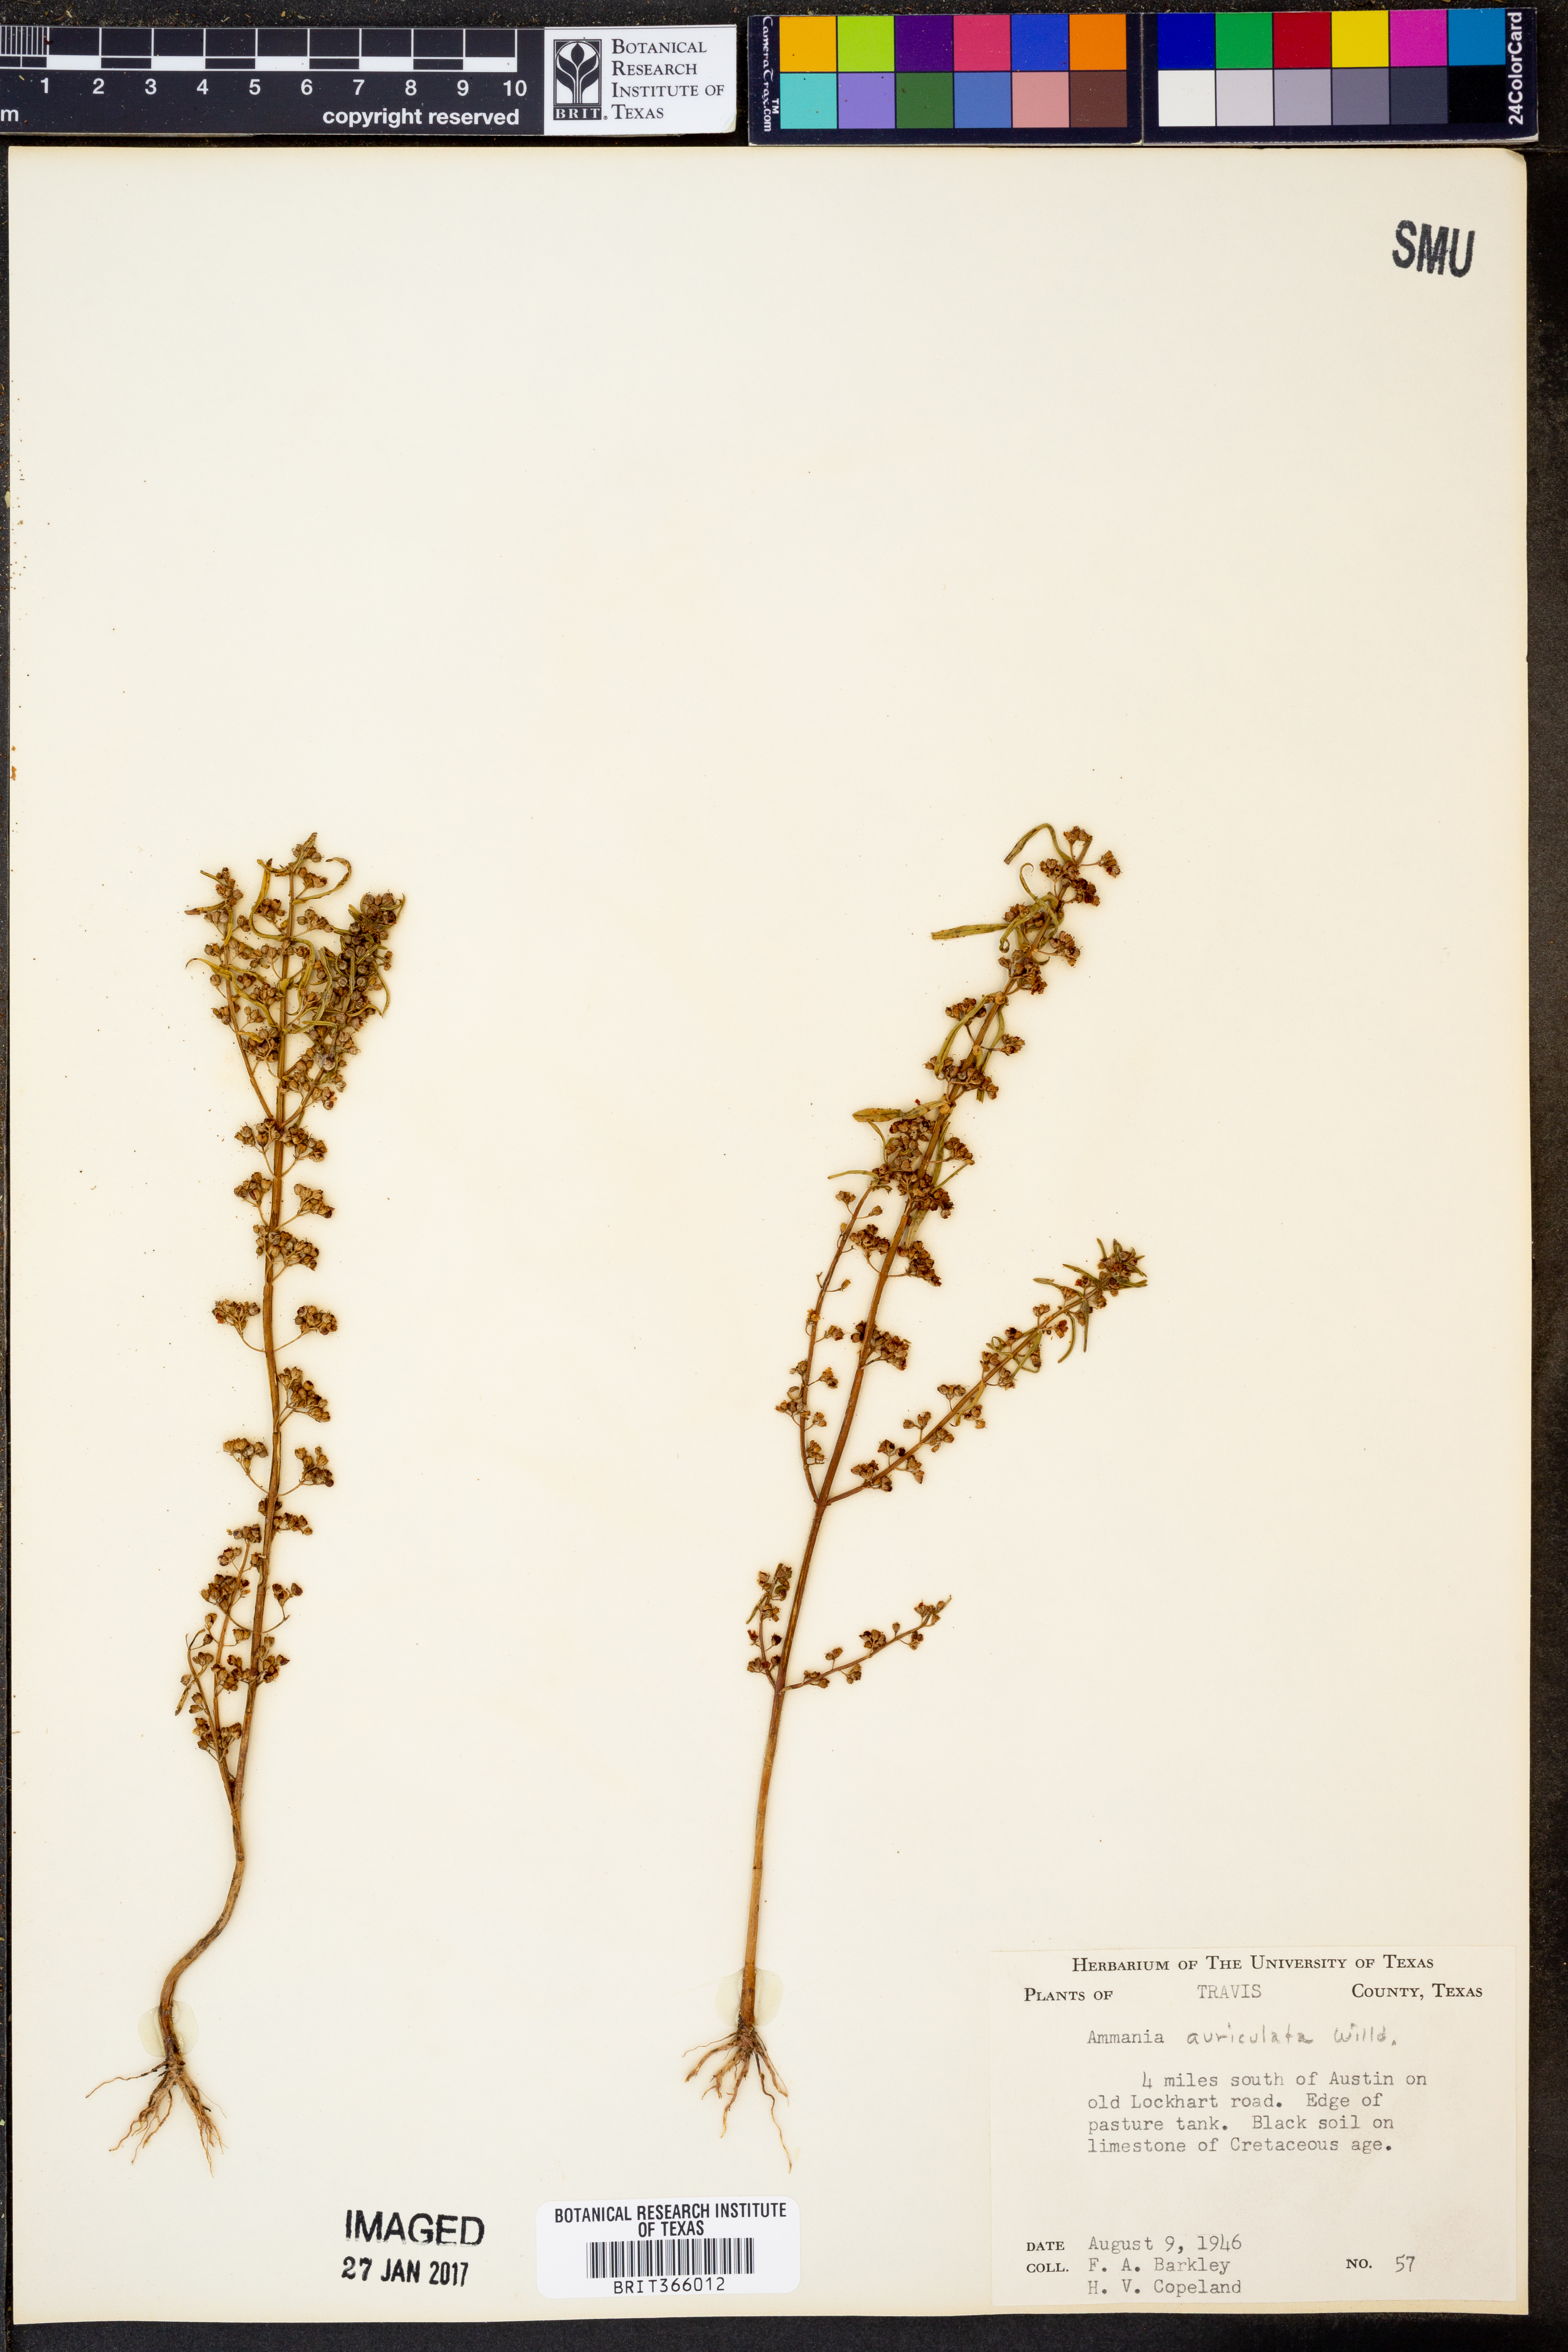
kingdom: Plantae
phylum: Tracheophyta
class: Magnoliopsida
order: Myrtales
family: Lythraceae
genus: Ammannia
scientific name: Ammannia auriculata
